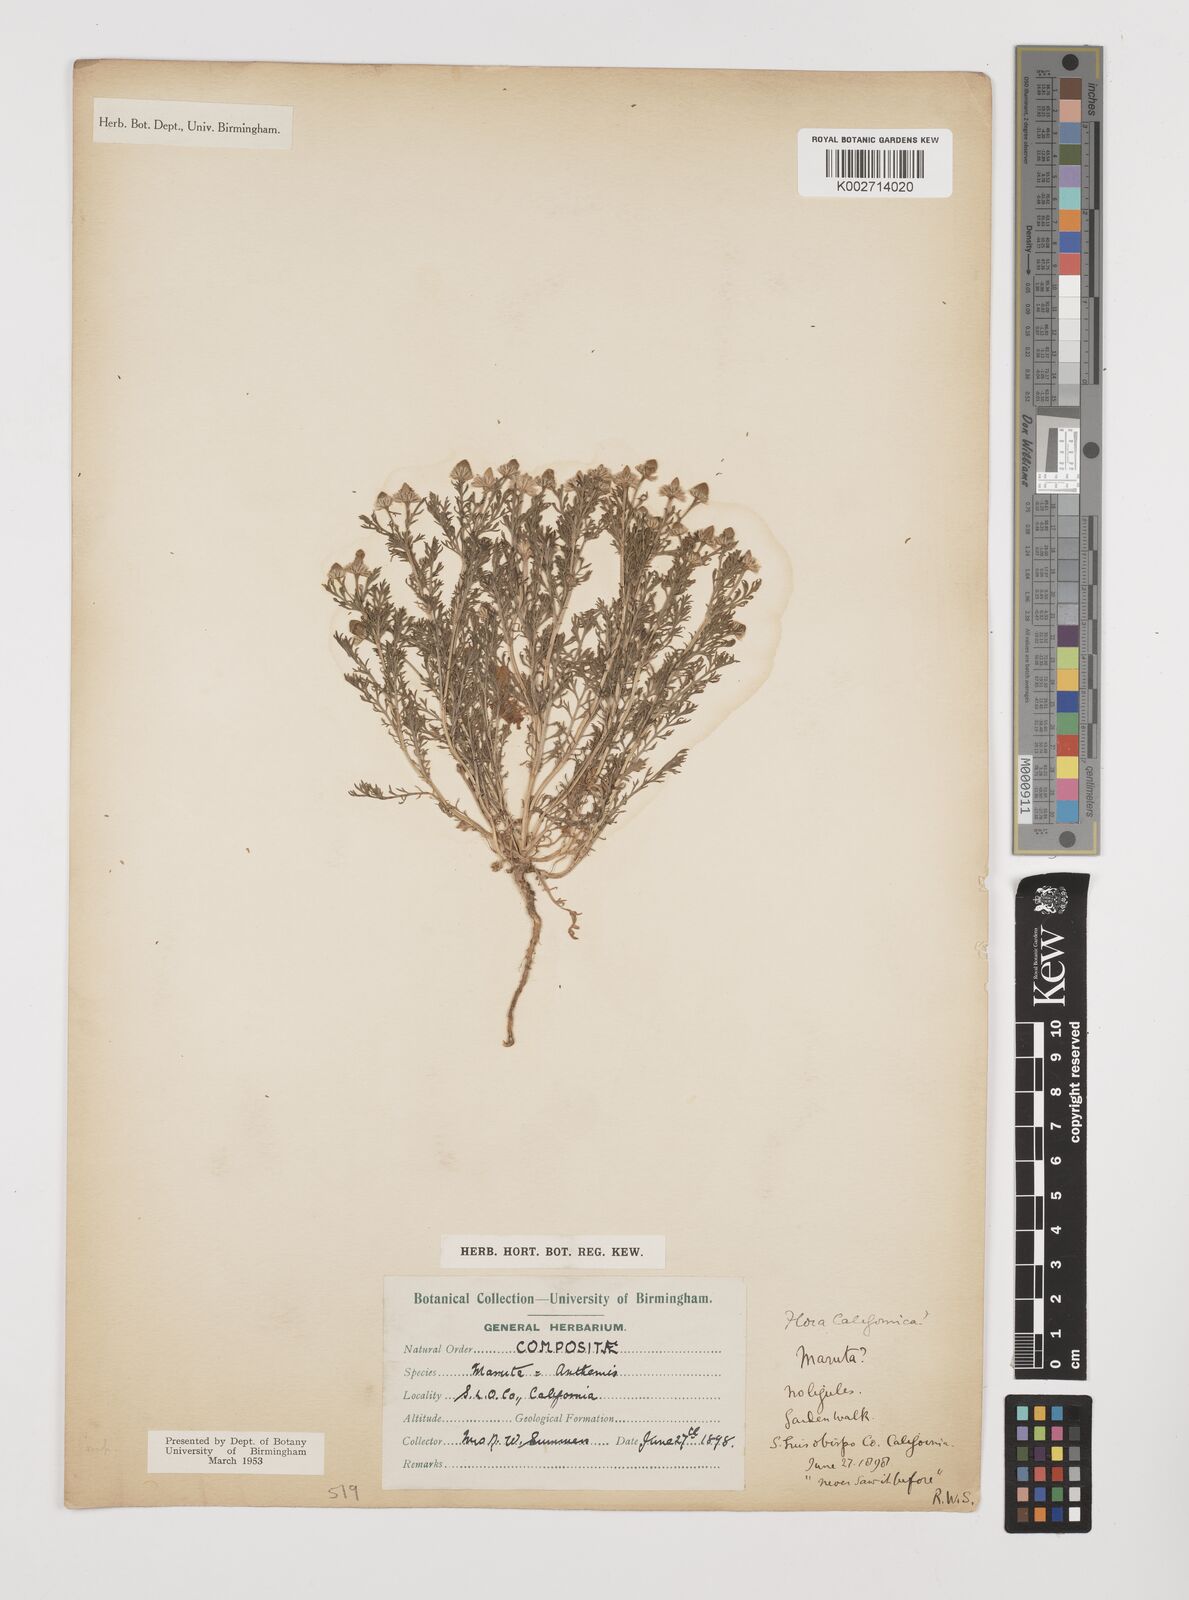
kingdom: Plantae
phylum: Tracheophyta
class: Magnoliopsida
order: Asterales
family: Asteraceae
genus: Anthemis
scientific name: Anthemis
